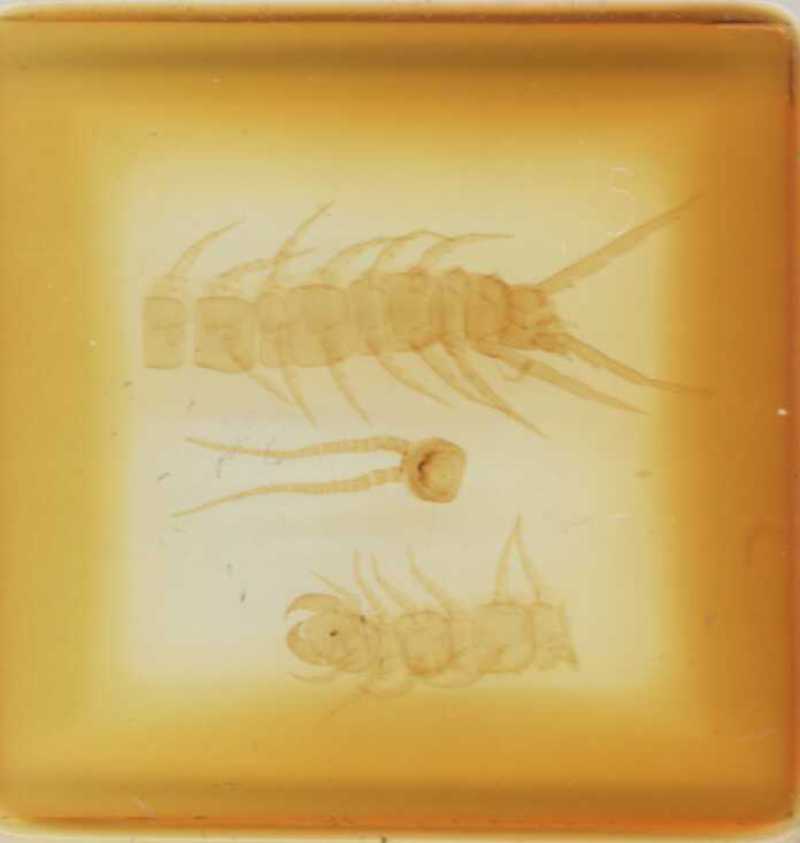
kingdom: Animalia
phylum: Arthropoda
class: Chilopoda
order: Lithobiomorpha
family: Lithobiidae
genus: Lithobius
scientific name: Lithobius karamani
